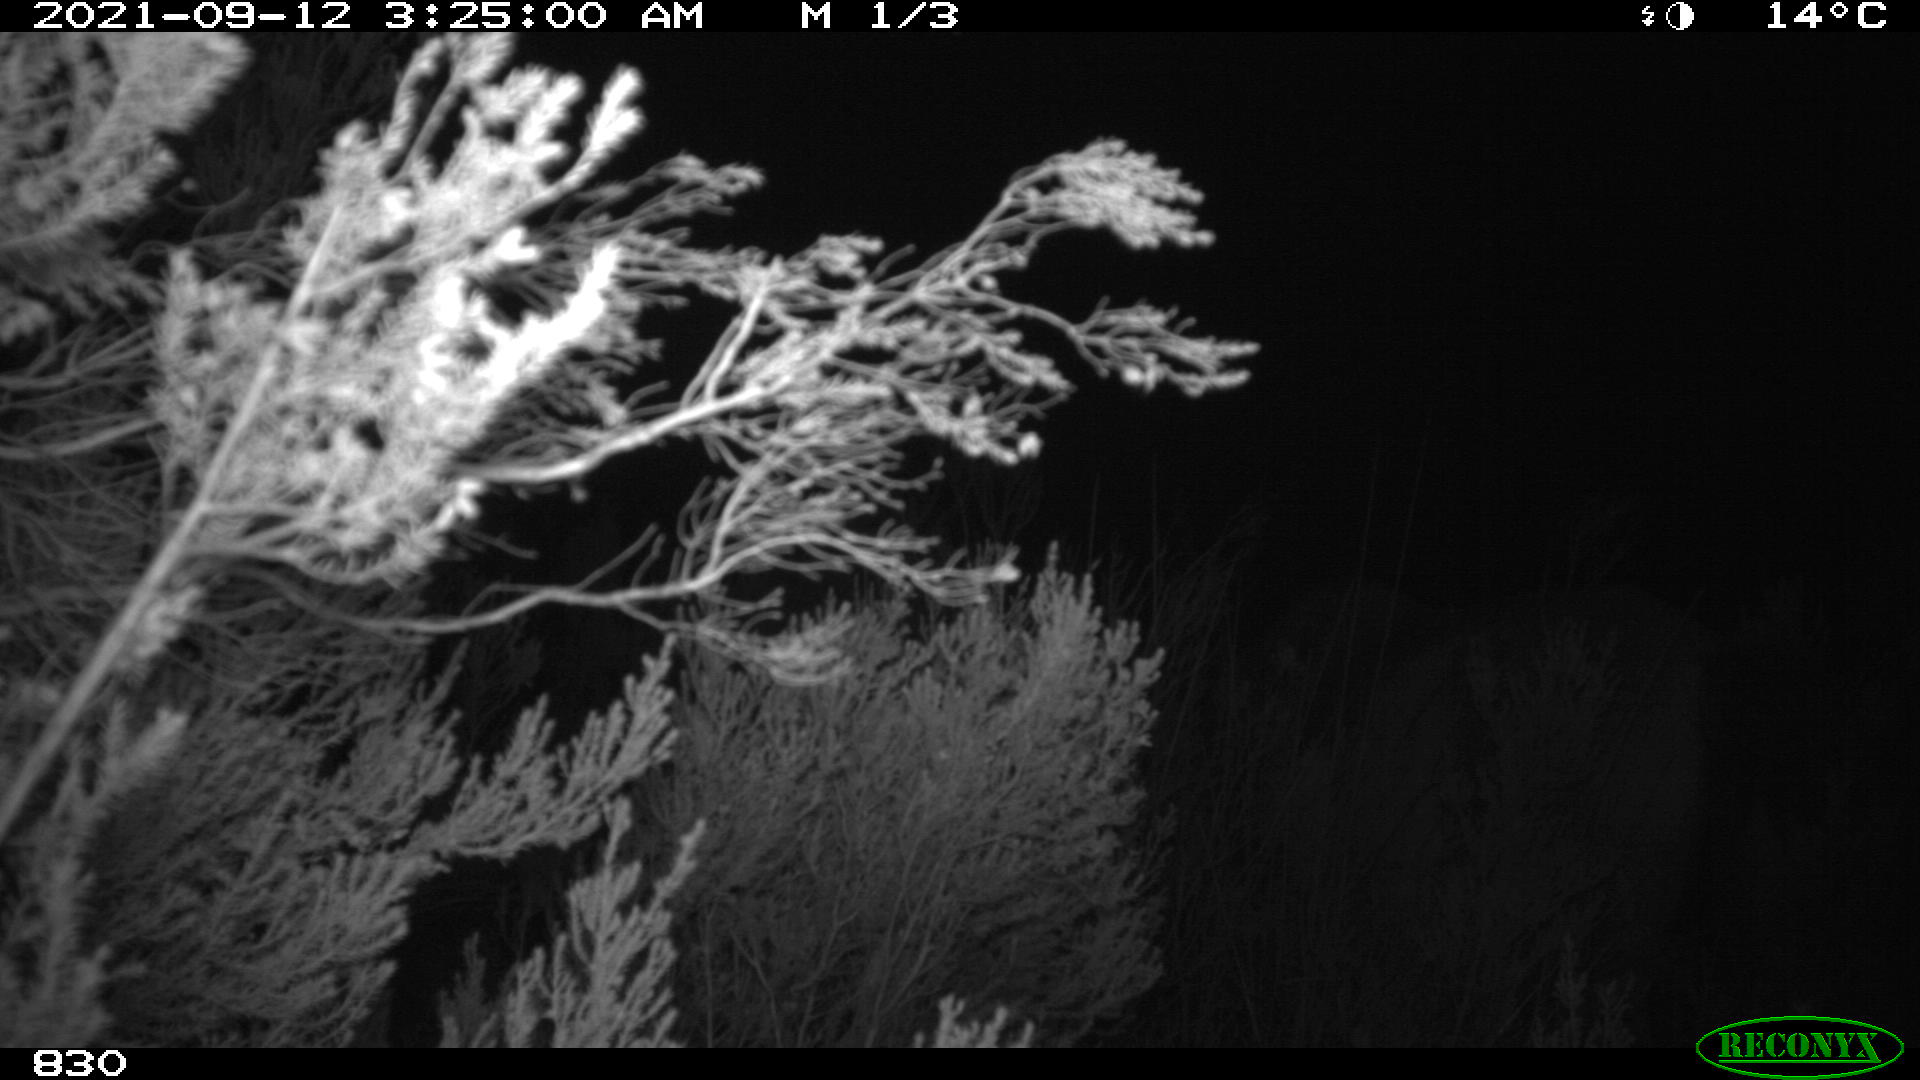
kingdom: Animalia
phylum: Chordata
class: Mammalia
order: Perissodactyla
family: Equidae
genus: Equus
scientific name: Equus caballus
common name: Horse
